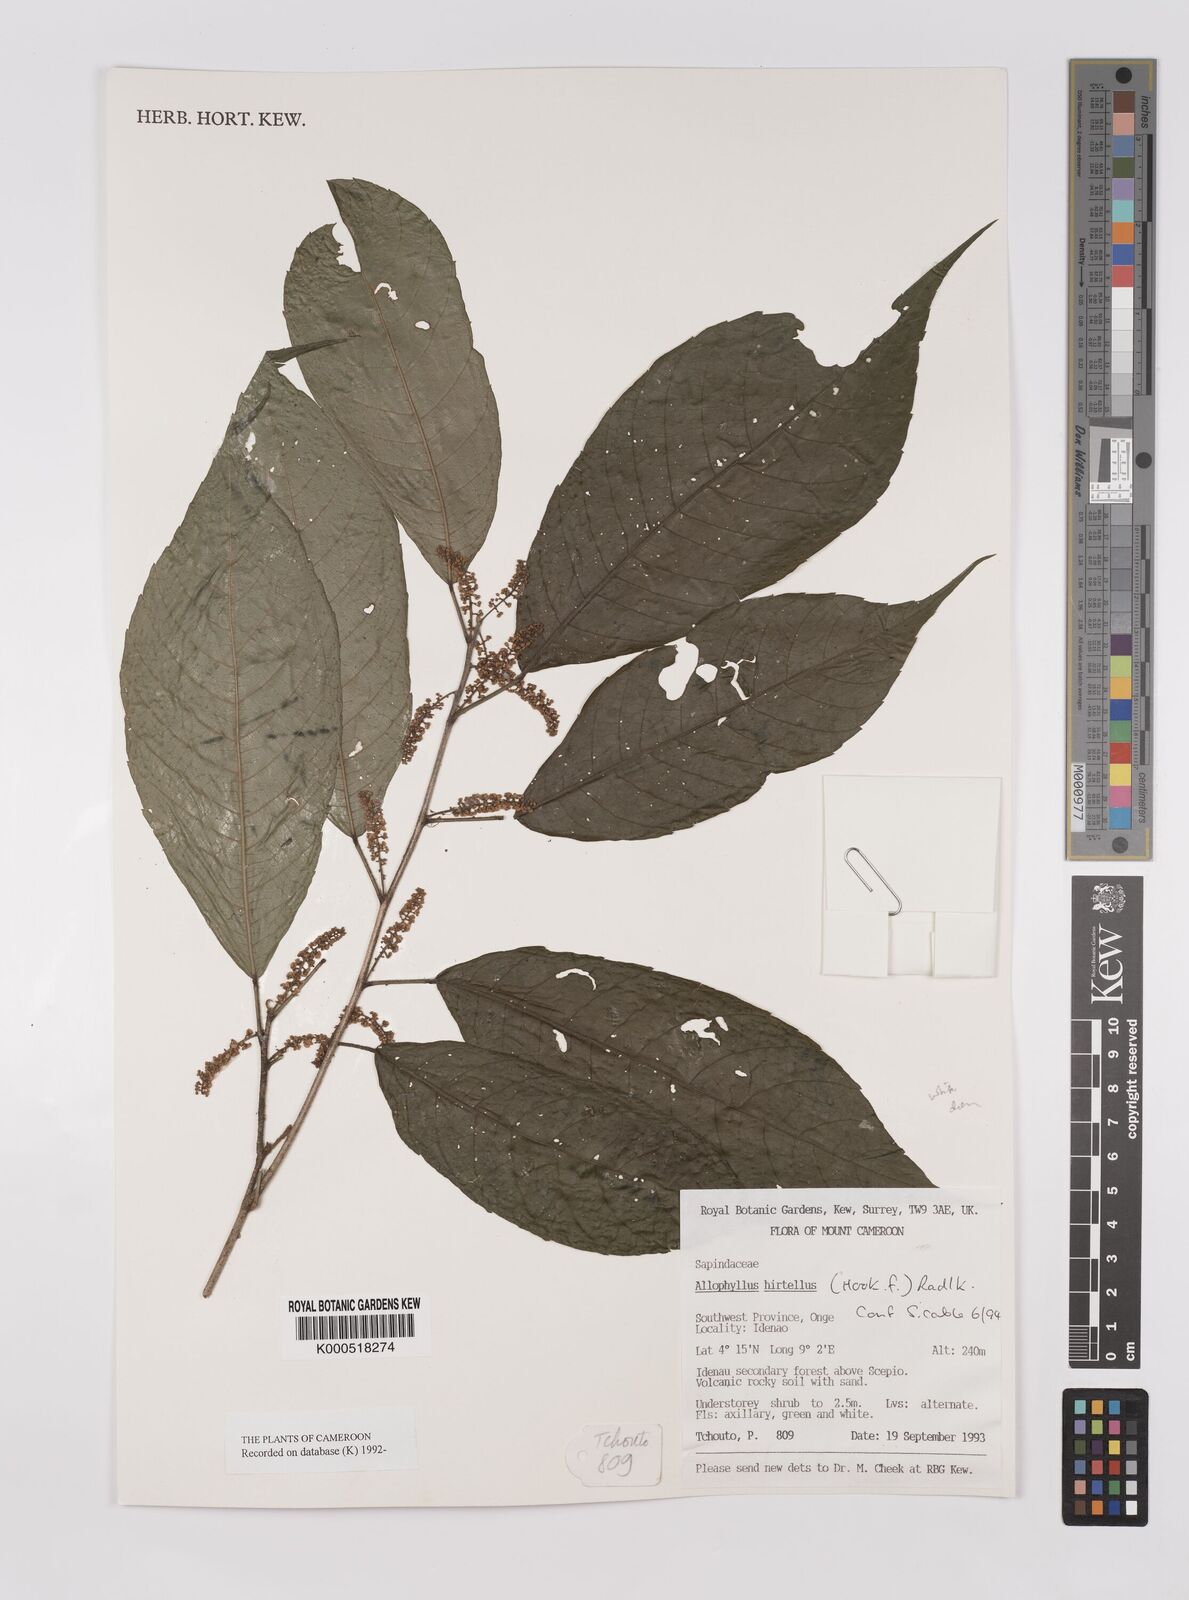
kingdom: Plantae
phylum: Tracheophyta
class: Magnoliopsida
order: Sapindales
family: Sapindaceae
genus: Allophylus
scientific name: Allophylus hirtellus
